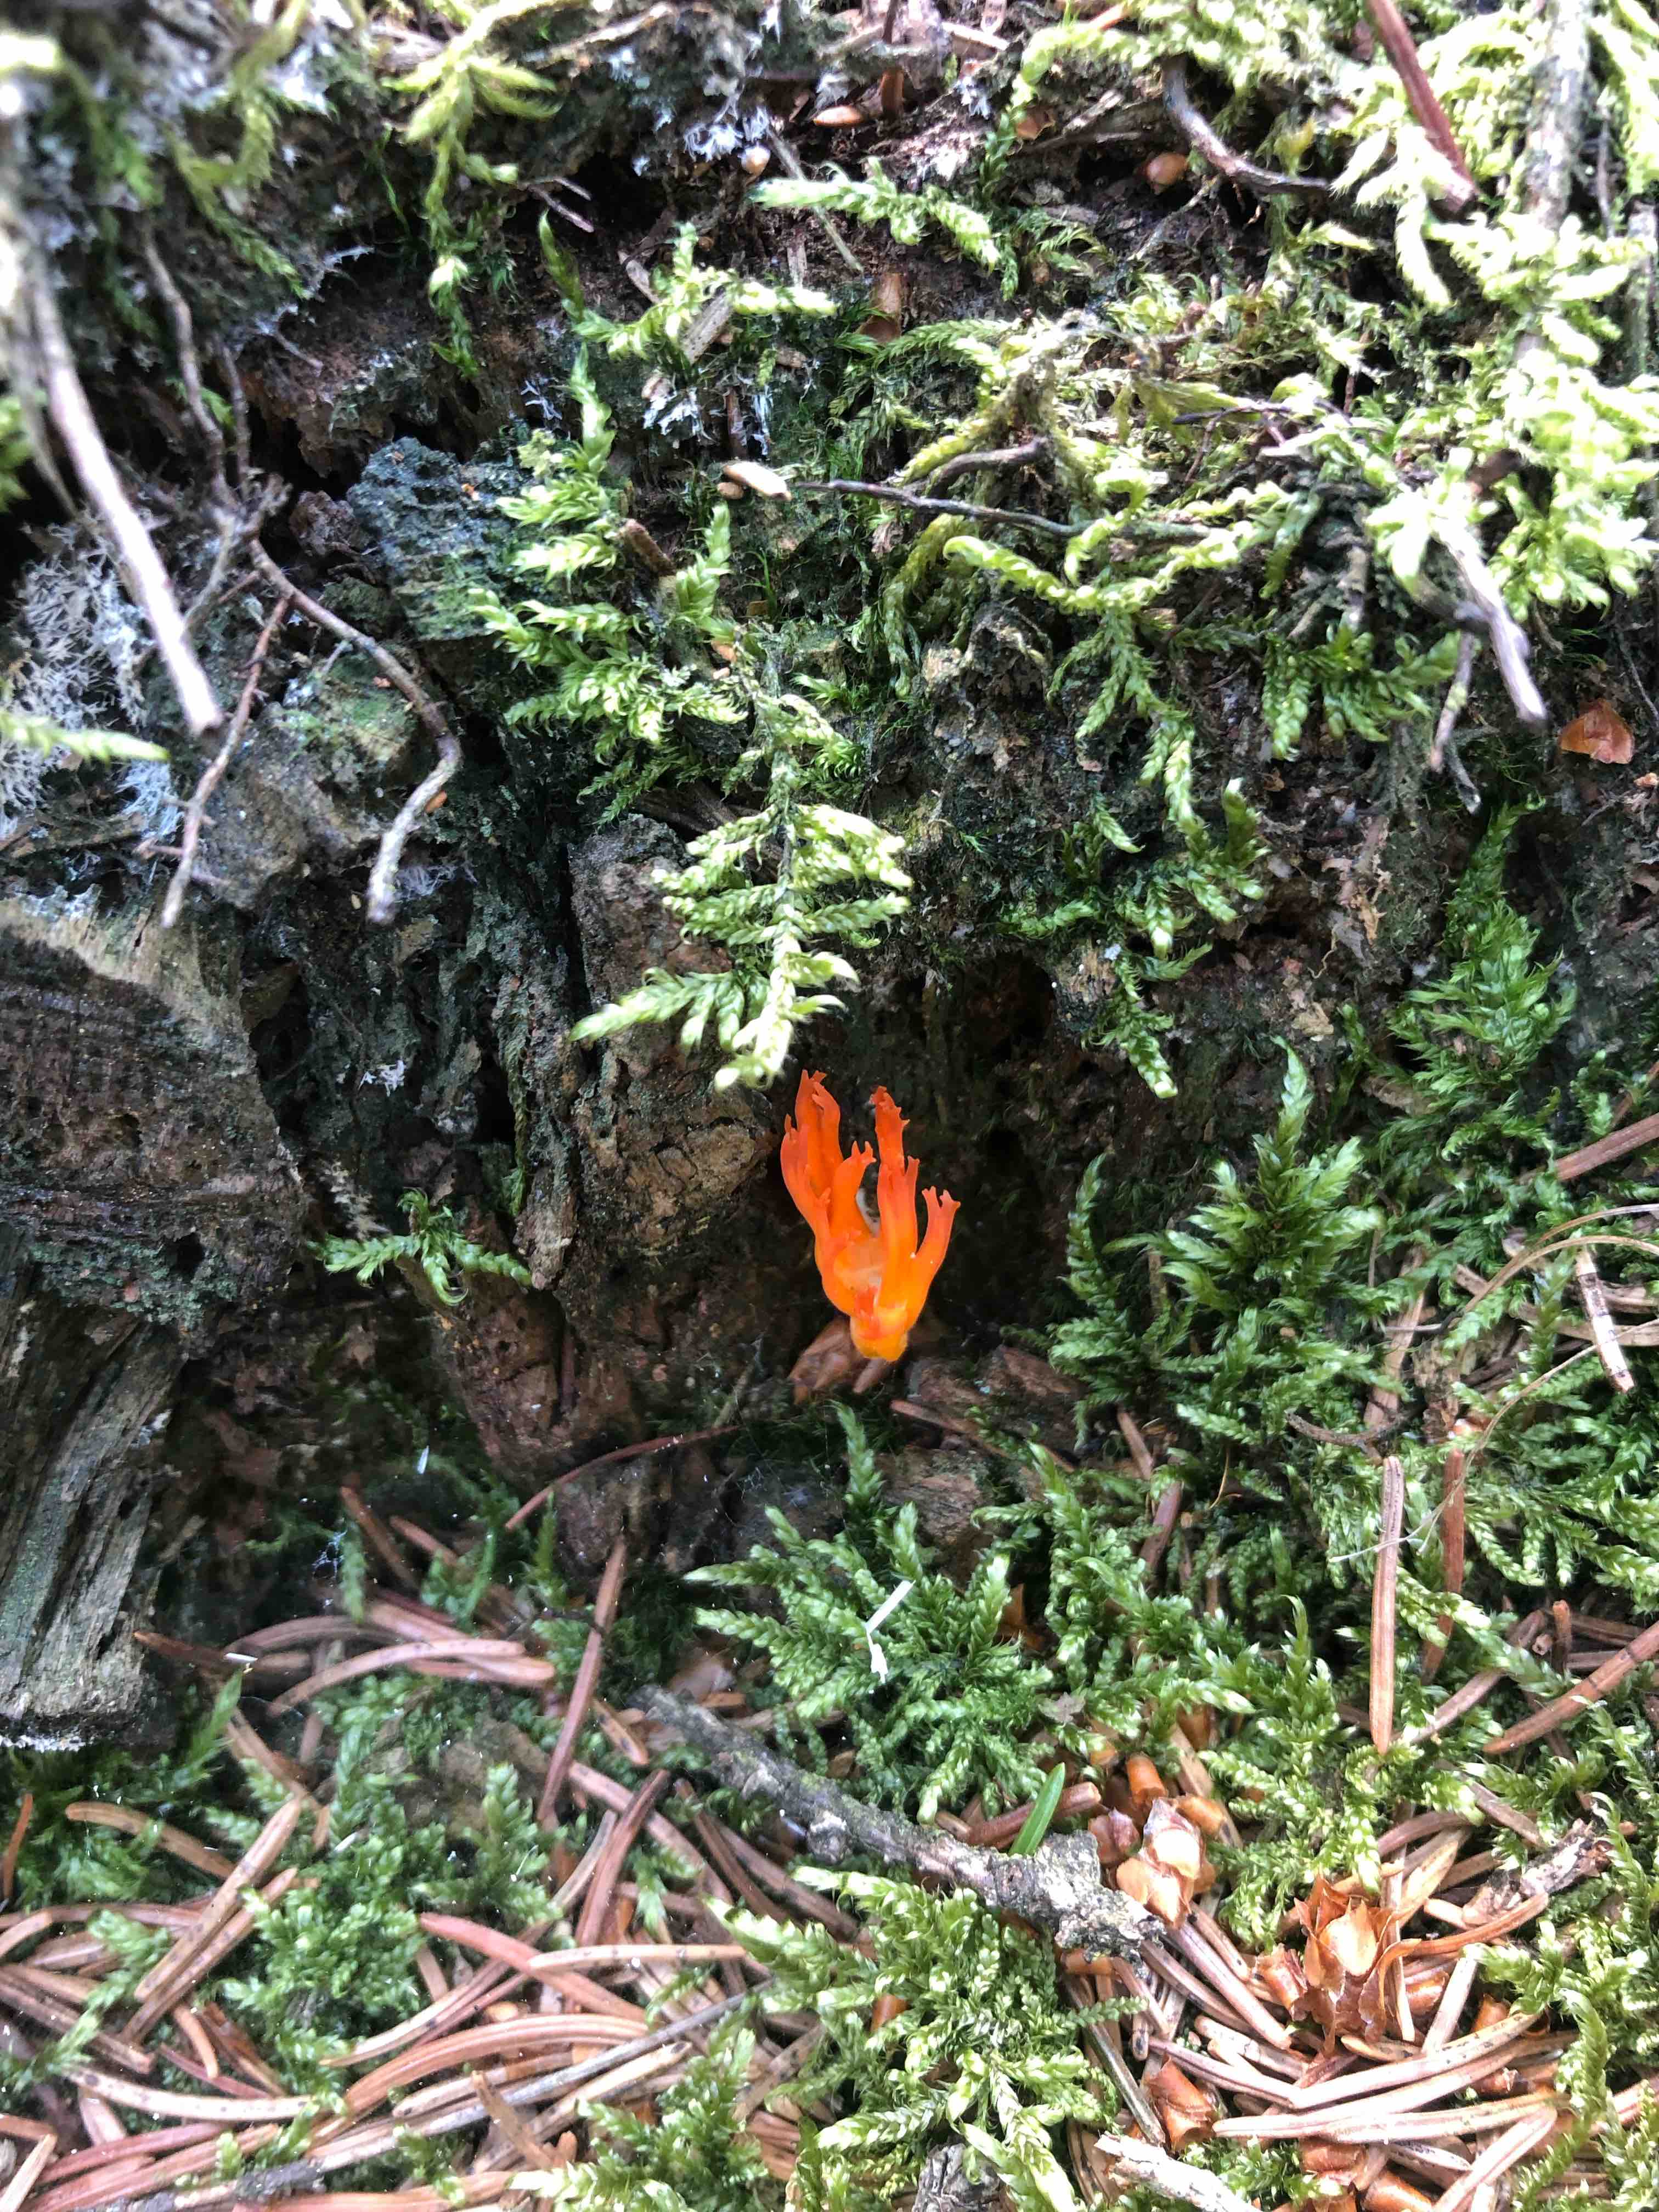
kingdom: Fungi
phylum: Basidiomycota
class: Dacrymycetes
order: Dacrymycetales
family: Dacrymycetaceae
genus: Calocera
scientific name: Calocera viscosa
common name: almindelig guldgaffel
